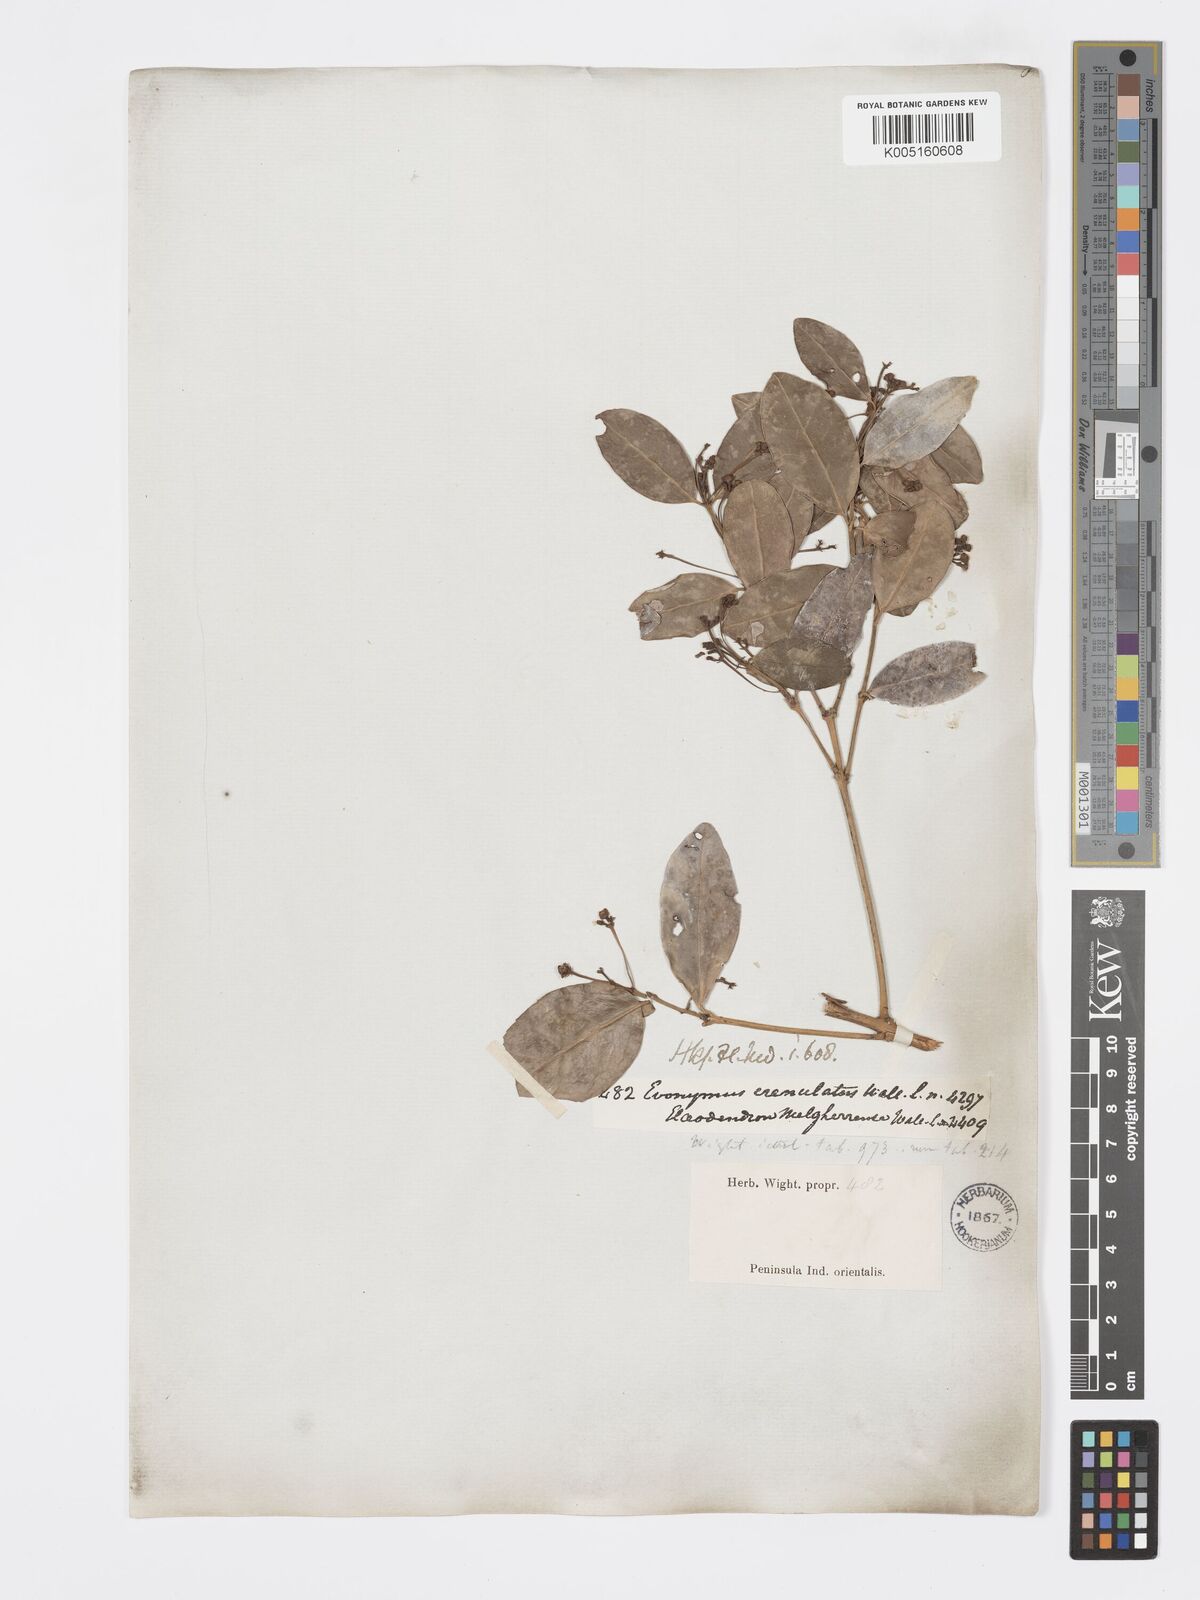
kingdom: Plantae
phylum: Tracheophyta
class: Magnoliopsida
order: Celastrales
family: Celastraceae
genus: Euonymus
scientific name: Euonymus crenulatus
